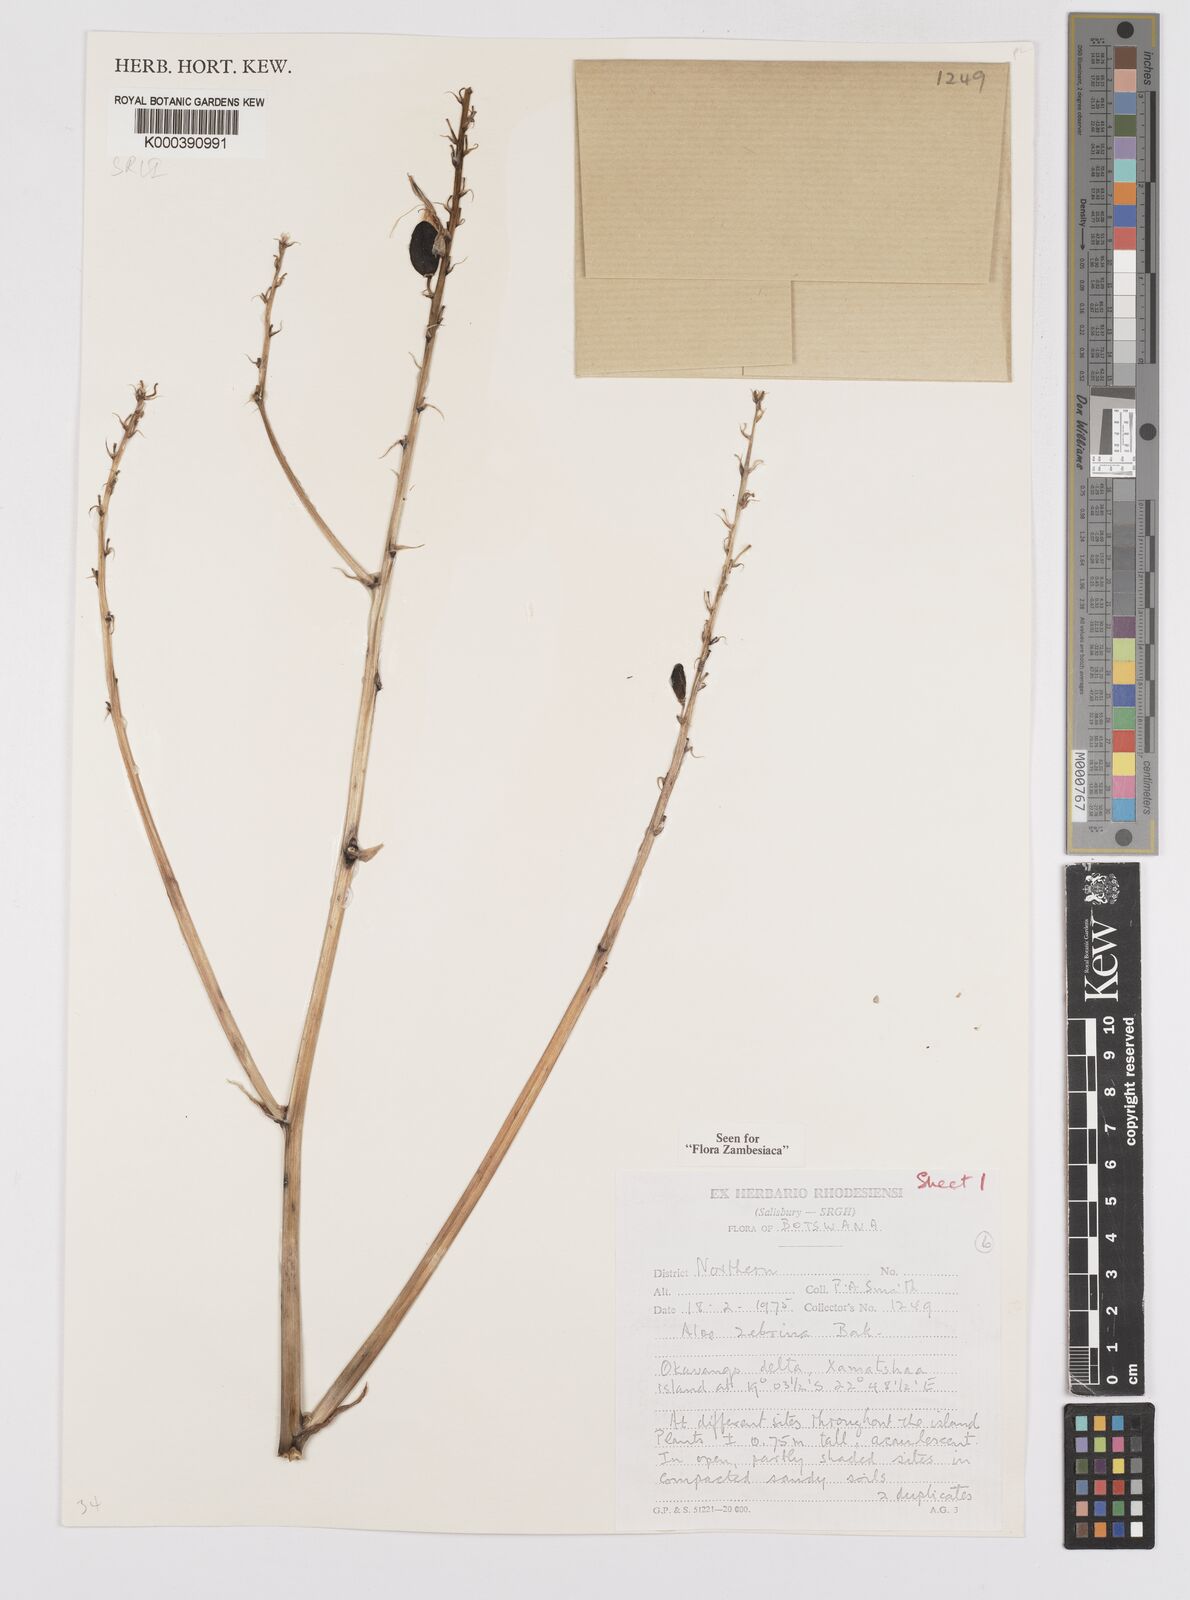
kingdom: Plantae
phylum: Tracheophyta
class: Liliopsida
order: Asparagales
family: Asphodelaceae
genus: Aloe
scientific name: Aloe zebrina
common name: Zebra-leaf aloe
